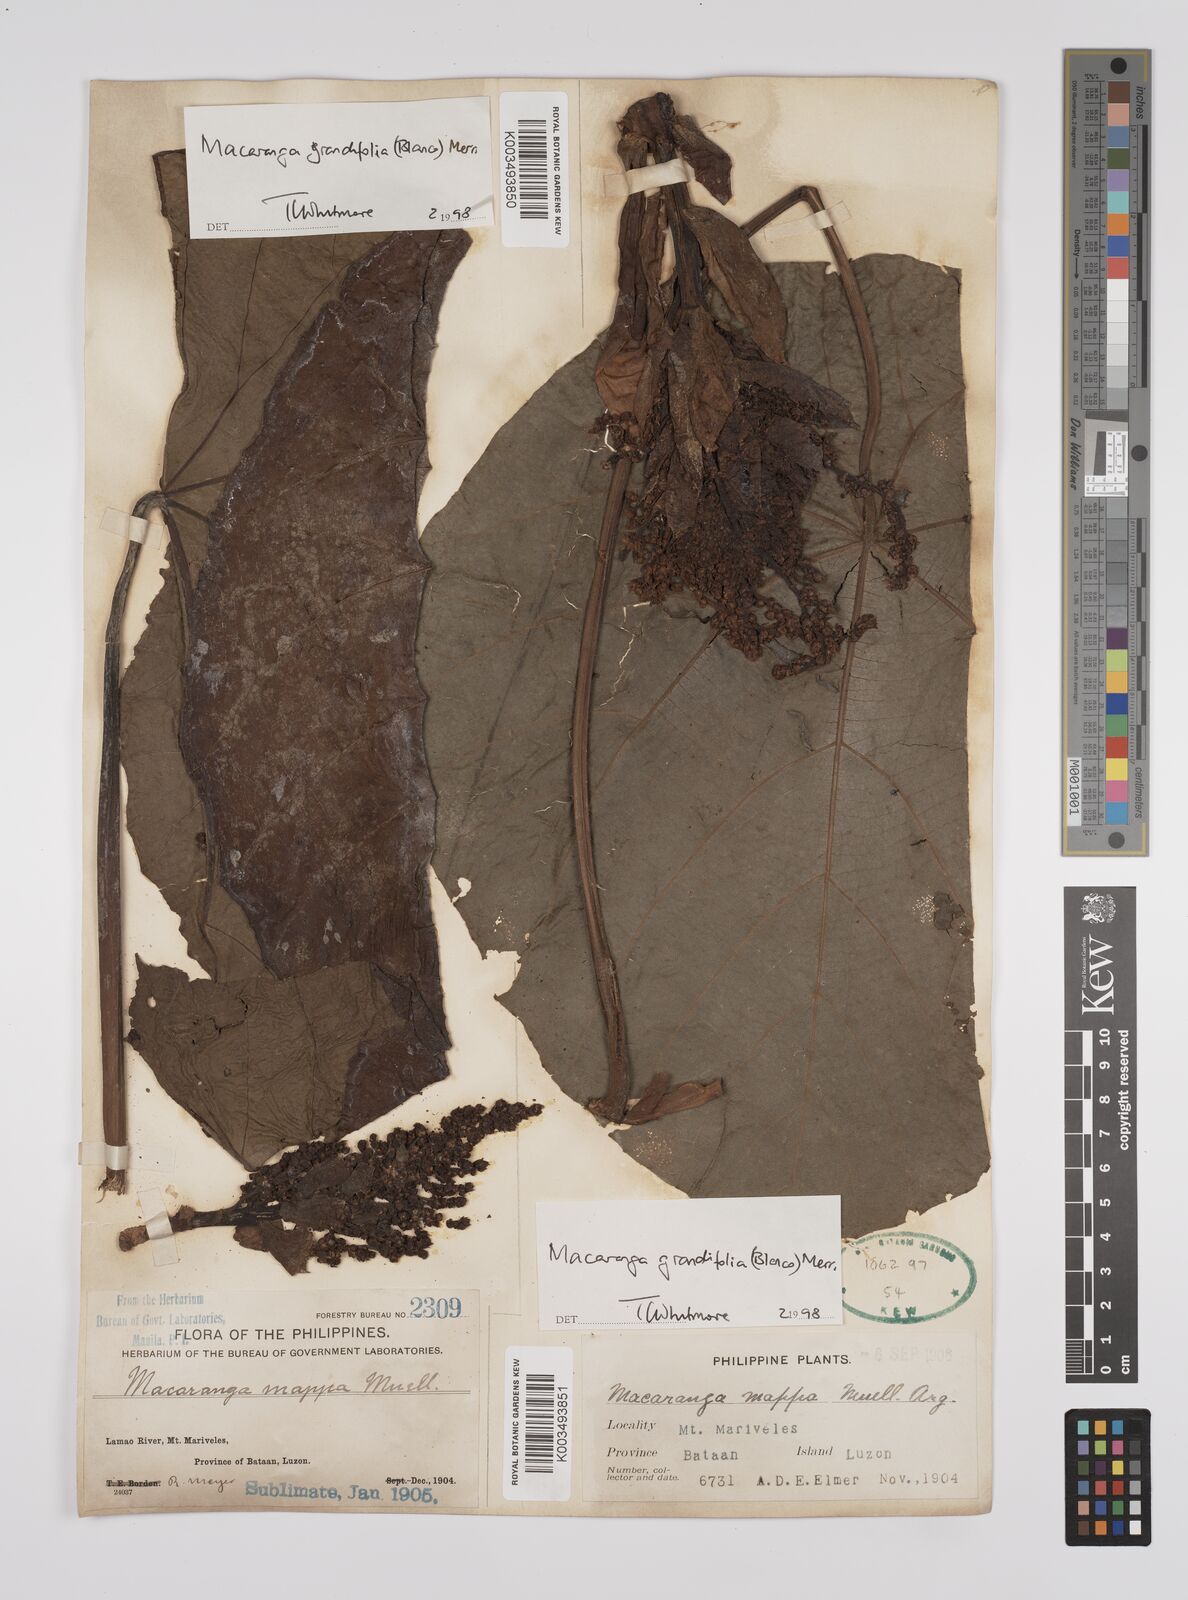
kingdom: Plantae
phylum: Tracheophyta
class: Magnoliopsida
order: Malpighiales
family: Euphorbiaceae
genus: Macaranga
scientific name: Macaranga grandifolia
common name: Coraltree
